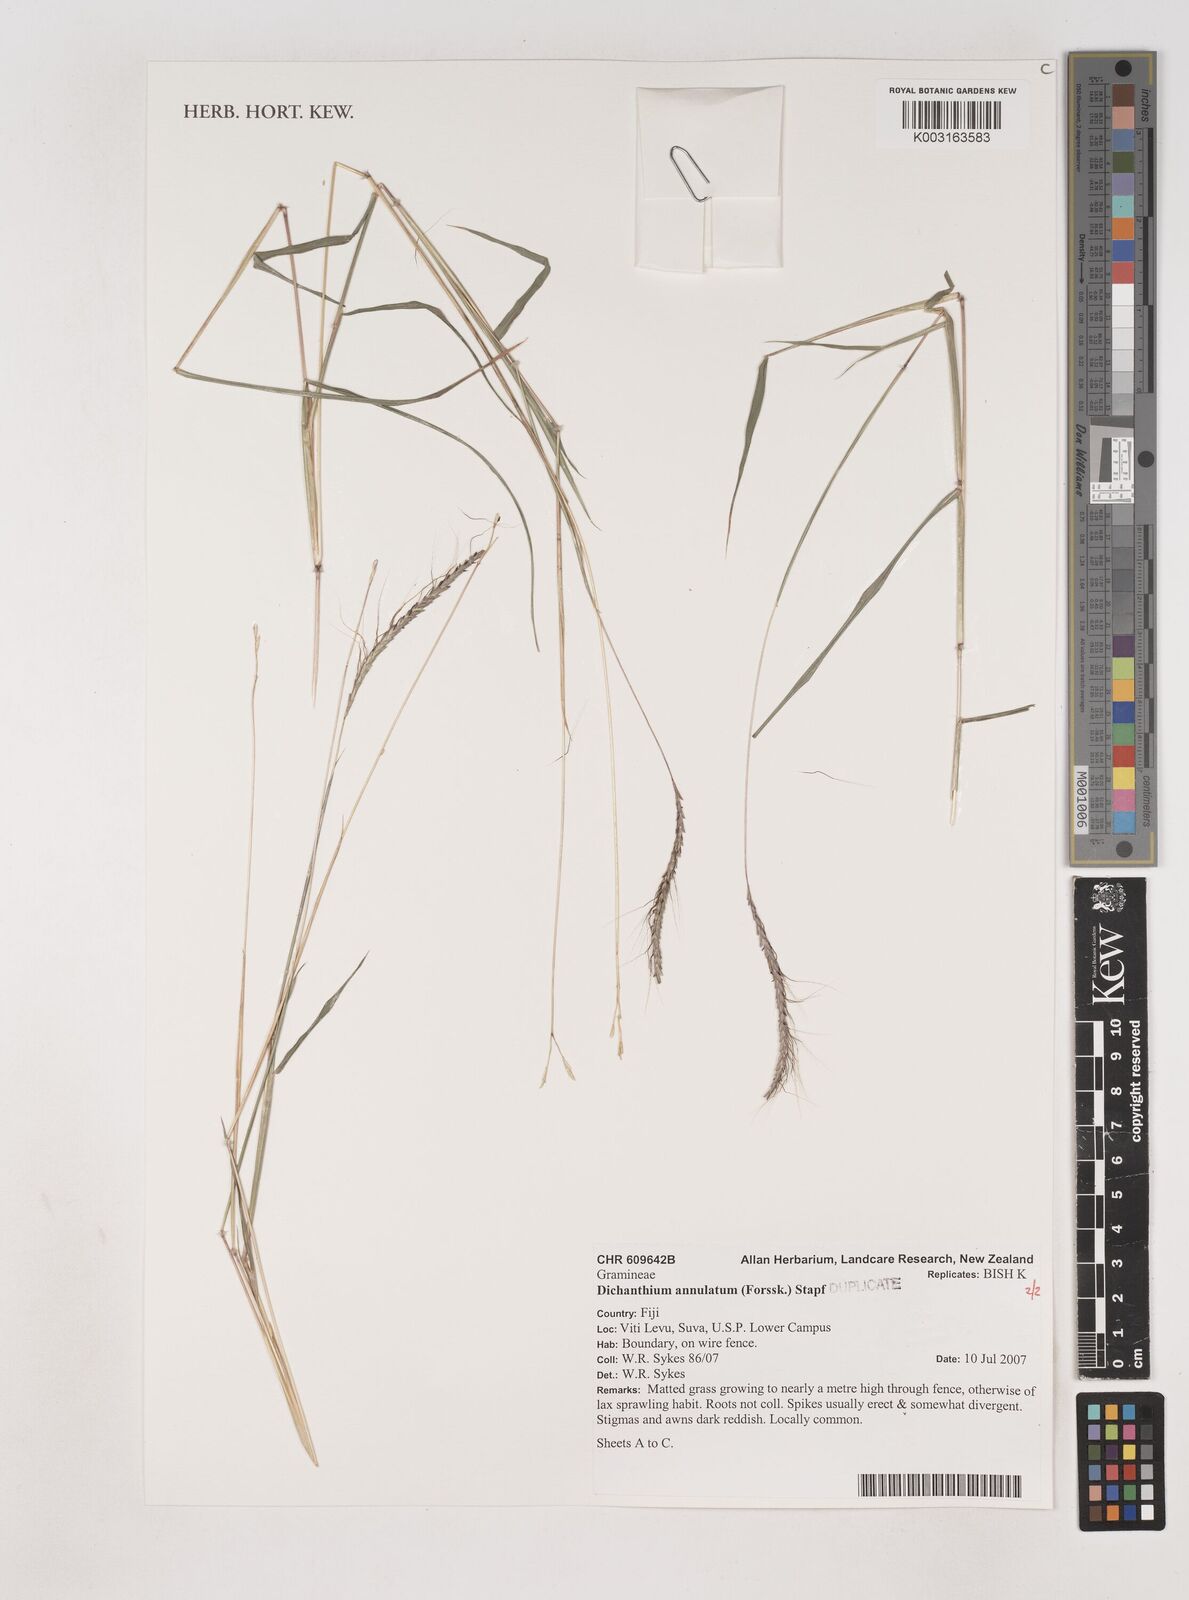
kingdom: Plantae
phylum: Tracheophyta
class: Liliopsida
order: Poales
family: Poaceae
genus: Dichanthium
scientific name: Dichanthium annulatum
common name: Kleberg's bluestem
